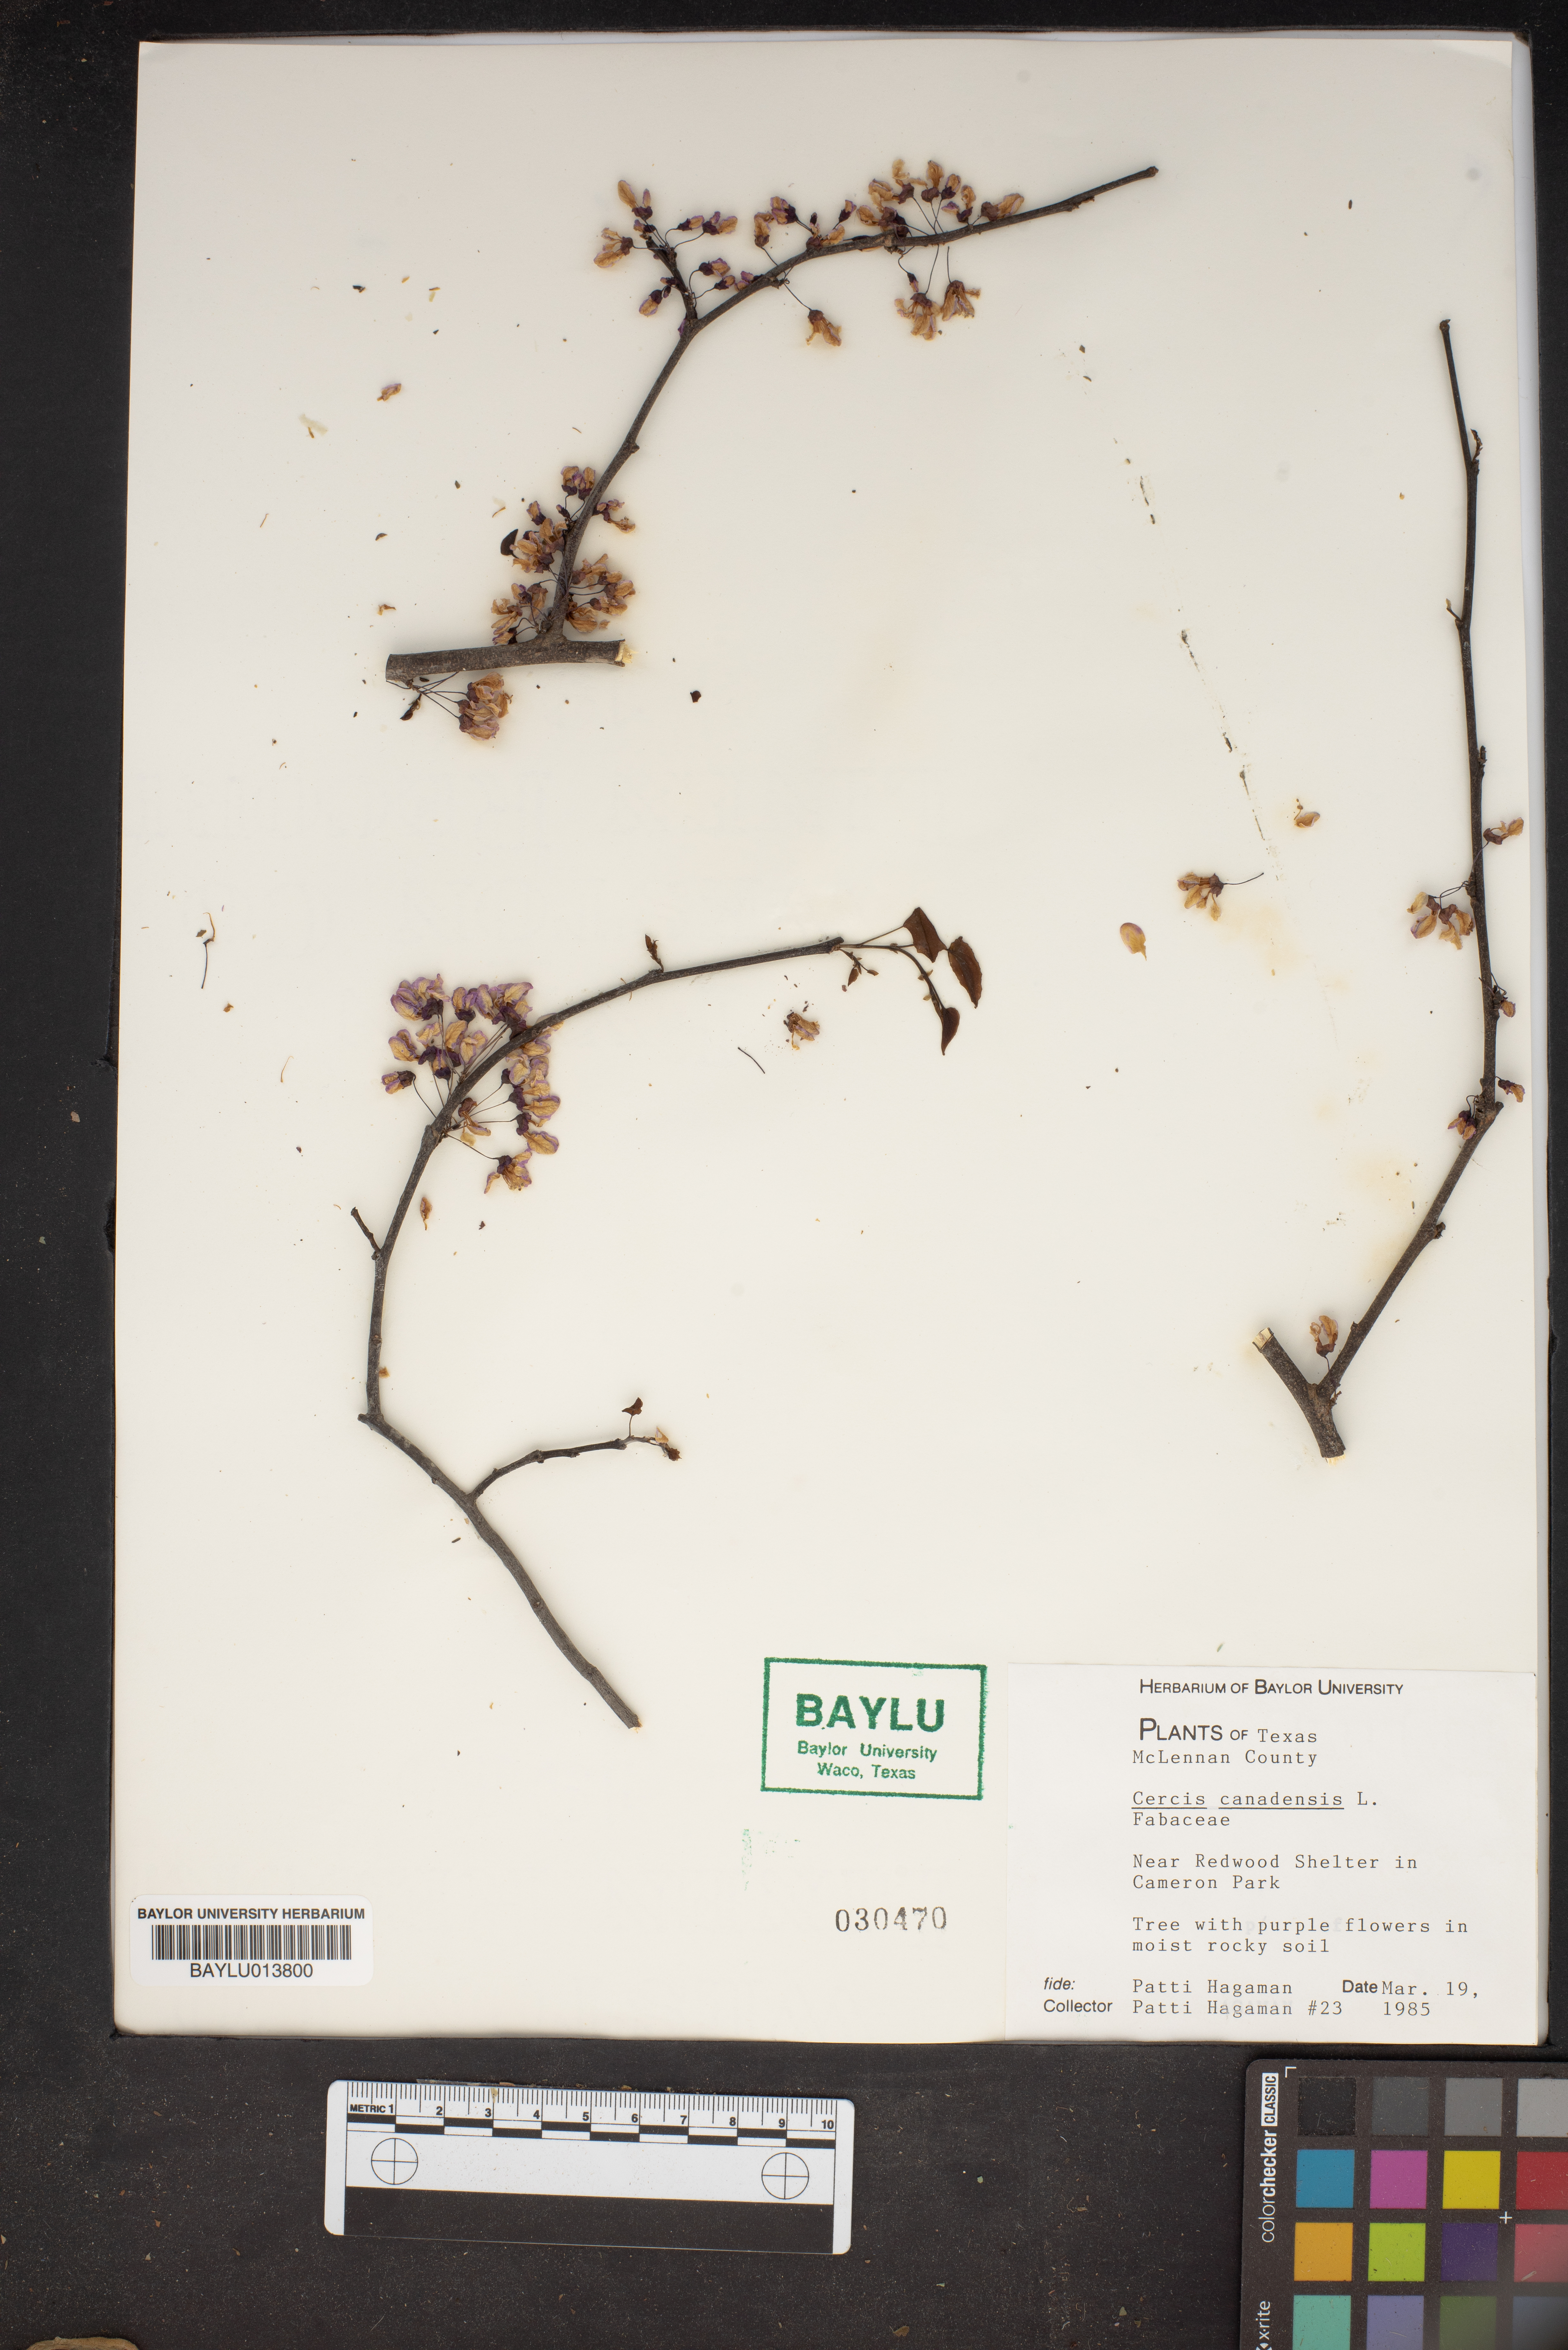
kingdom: Plantae
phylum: Tracheophyta
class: Magnoliopsida
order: Fabales
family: Fabaceae
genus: Cercis
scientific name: Cercis canadensis
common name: Eastern redbud
